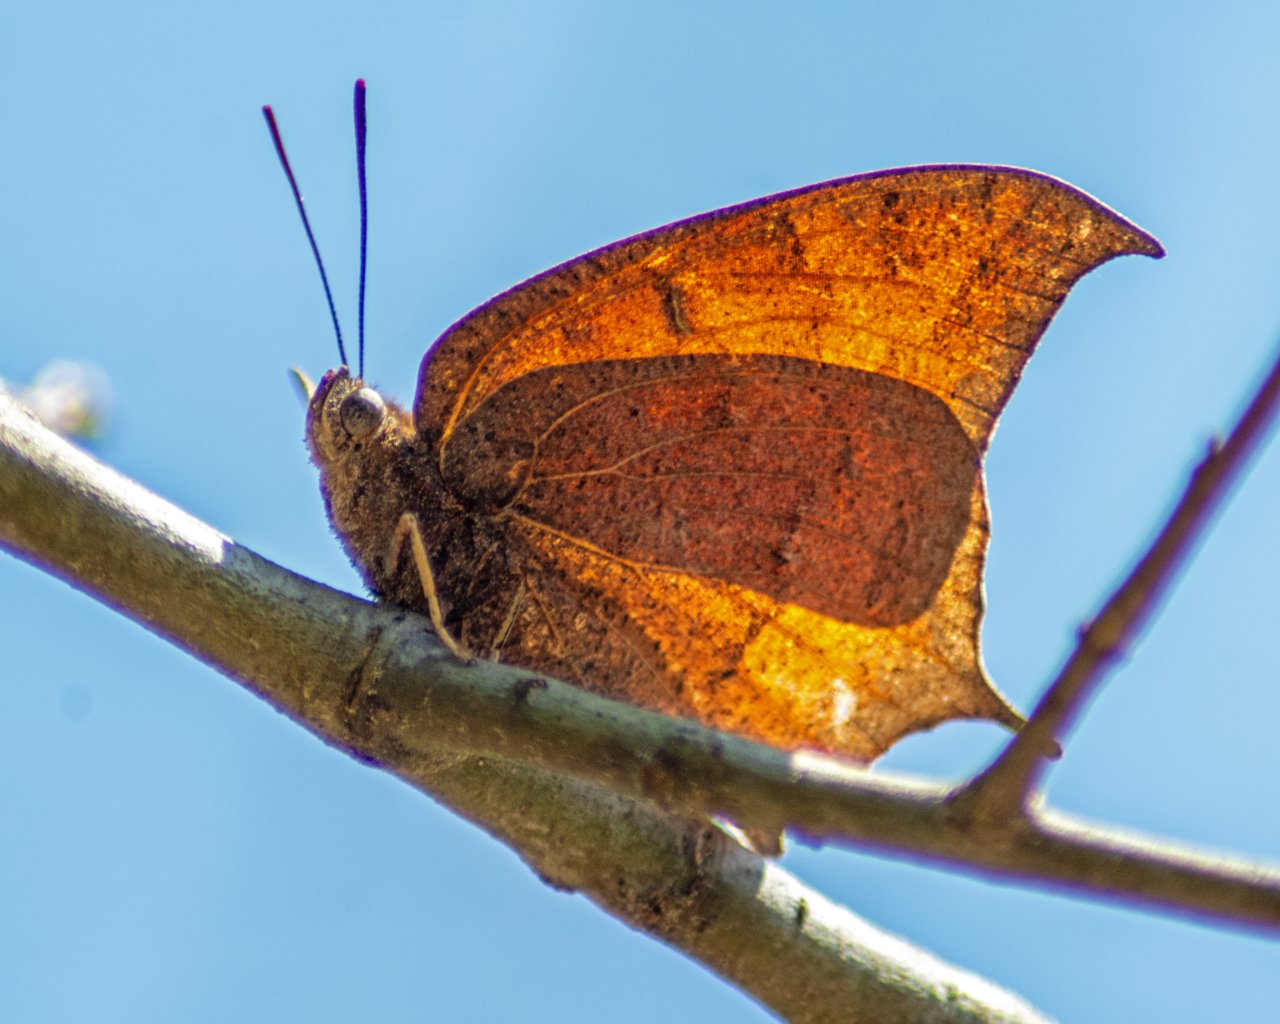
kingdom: Animalia
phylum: Arthropoda
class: Insecta
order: Lepidoptera
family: Nymphalidae
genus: Anaea
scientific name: Anaea andria
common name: Goatweed Leafwing
